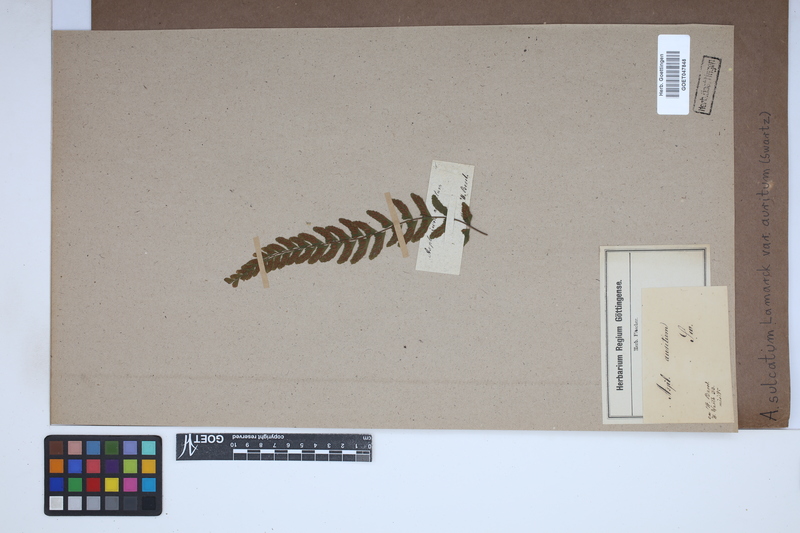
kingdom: Plantae
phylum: Tracheophyta
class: Polypodiopsida
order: Polypodiales
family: Aspleniaceae
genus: Asplenium
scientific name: Asplenium auritum
